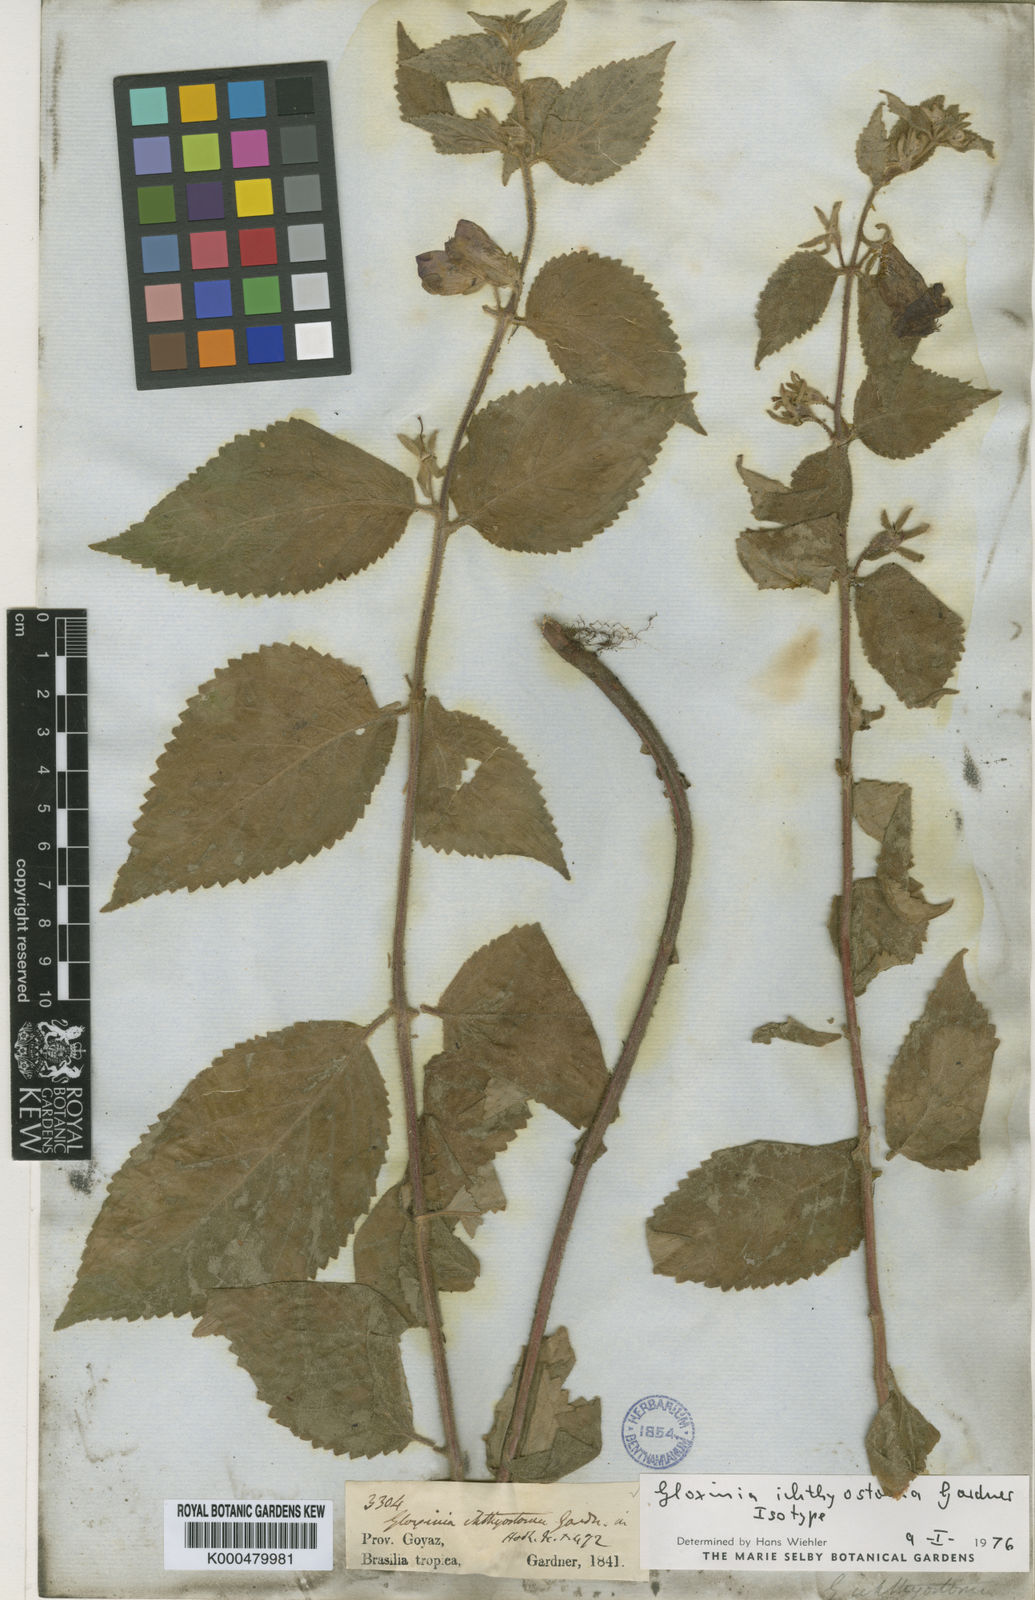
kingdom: Plantae
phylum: Tracheophyta
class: Magnoliopsida
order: Lamiales
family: Gesneriaceae
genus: Mandirola
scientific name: Mandirola ichthyostoma
